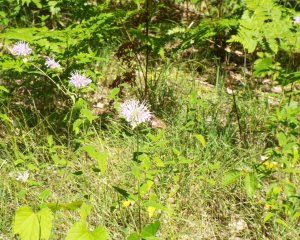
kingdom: Animalia
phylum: Arthropoda
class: Insecta
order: Lepidoptera
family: Hesperiidae
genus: Epargyreus
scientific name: Epargyreus clarus
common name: Silver-spotted Skipper
